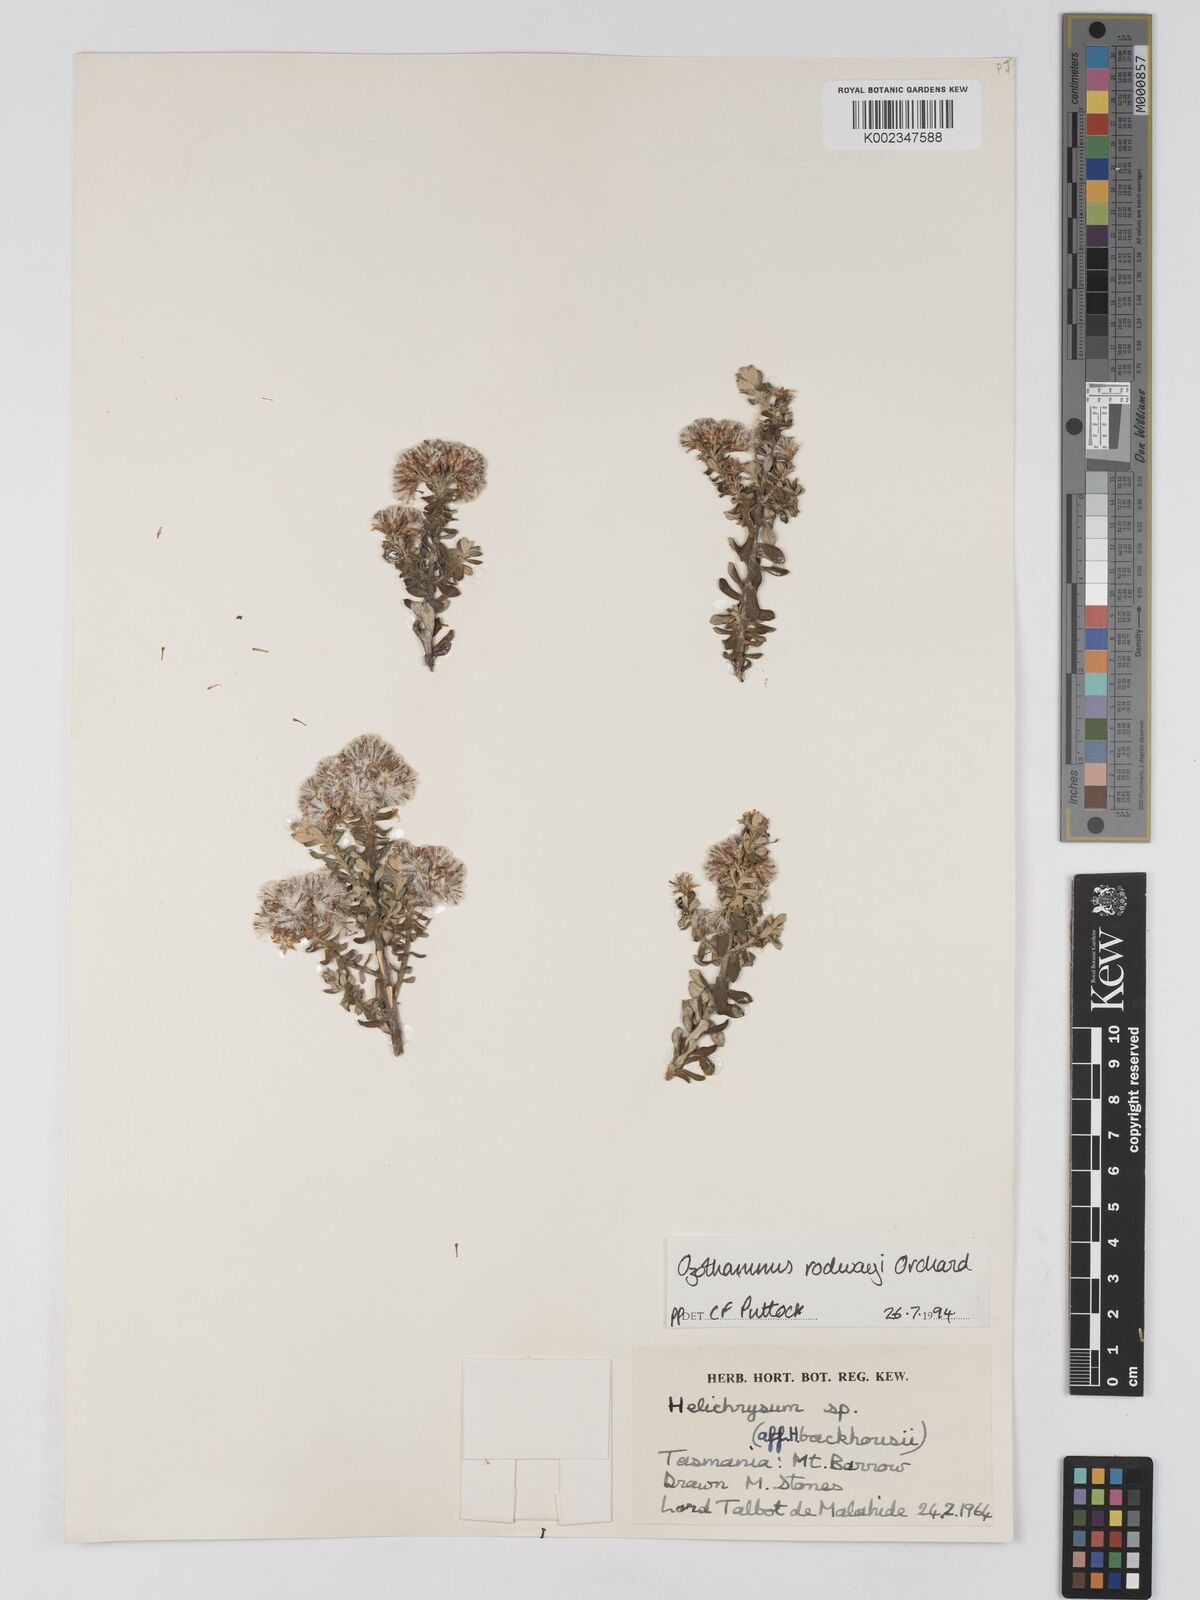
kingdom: Plantae
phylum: Tracheophyta
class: Magnoliopsida
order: Asterales
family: Asteraceae
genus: Ozothamnus
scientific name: Ozothamnus rodwayi
